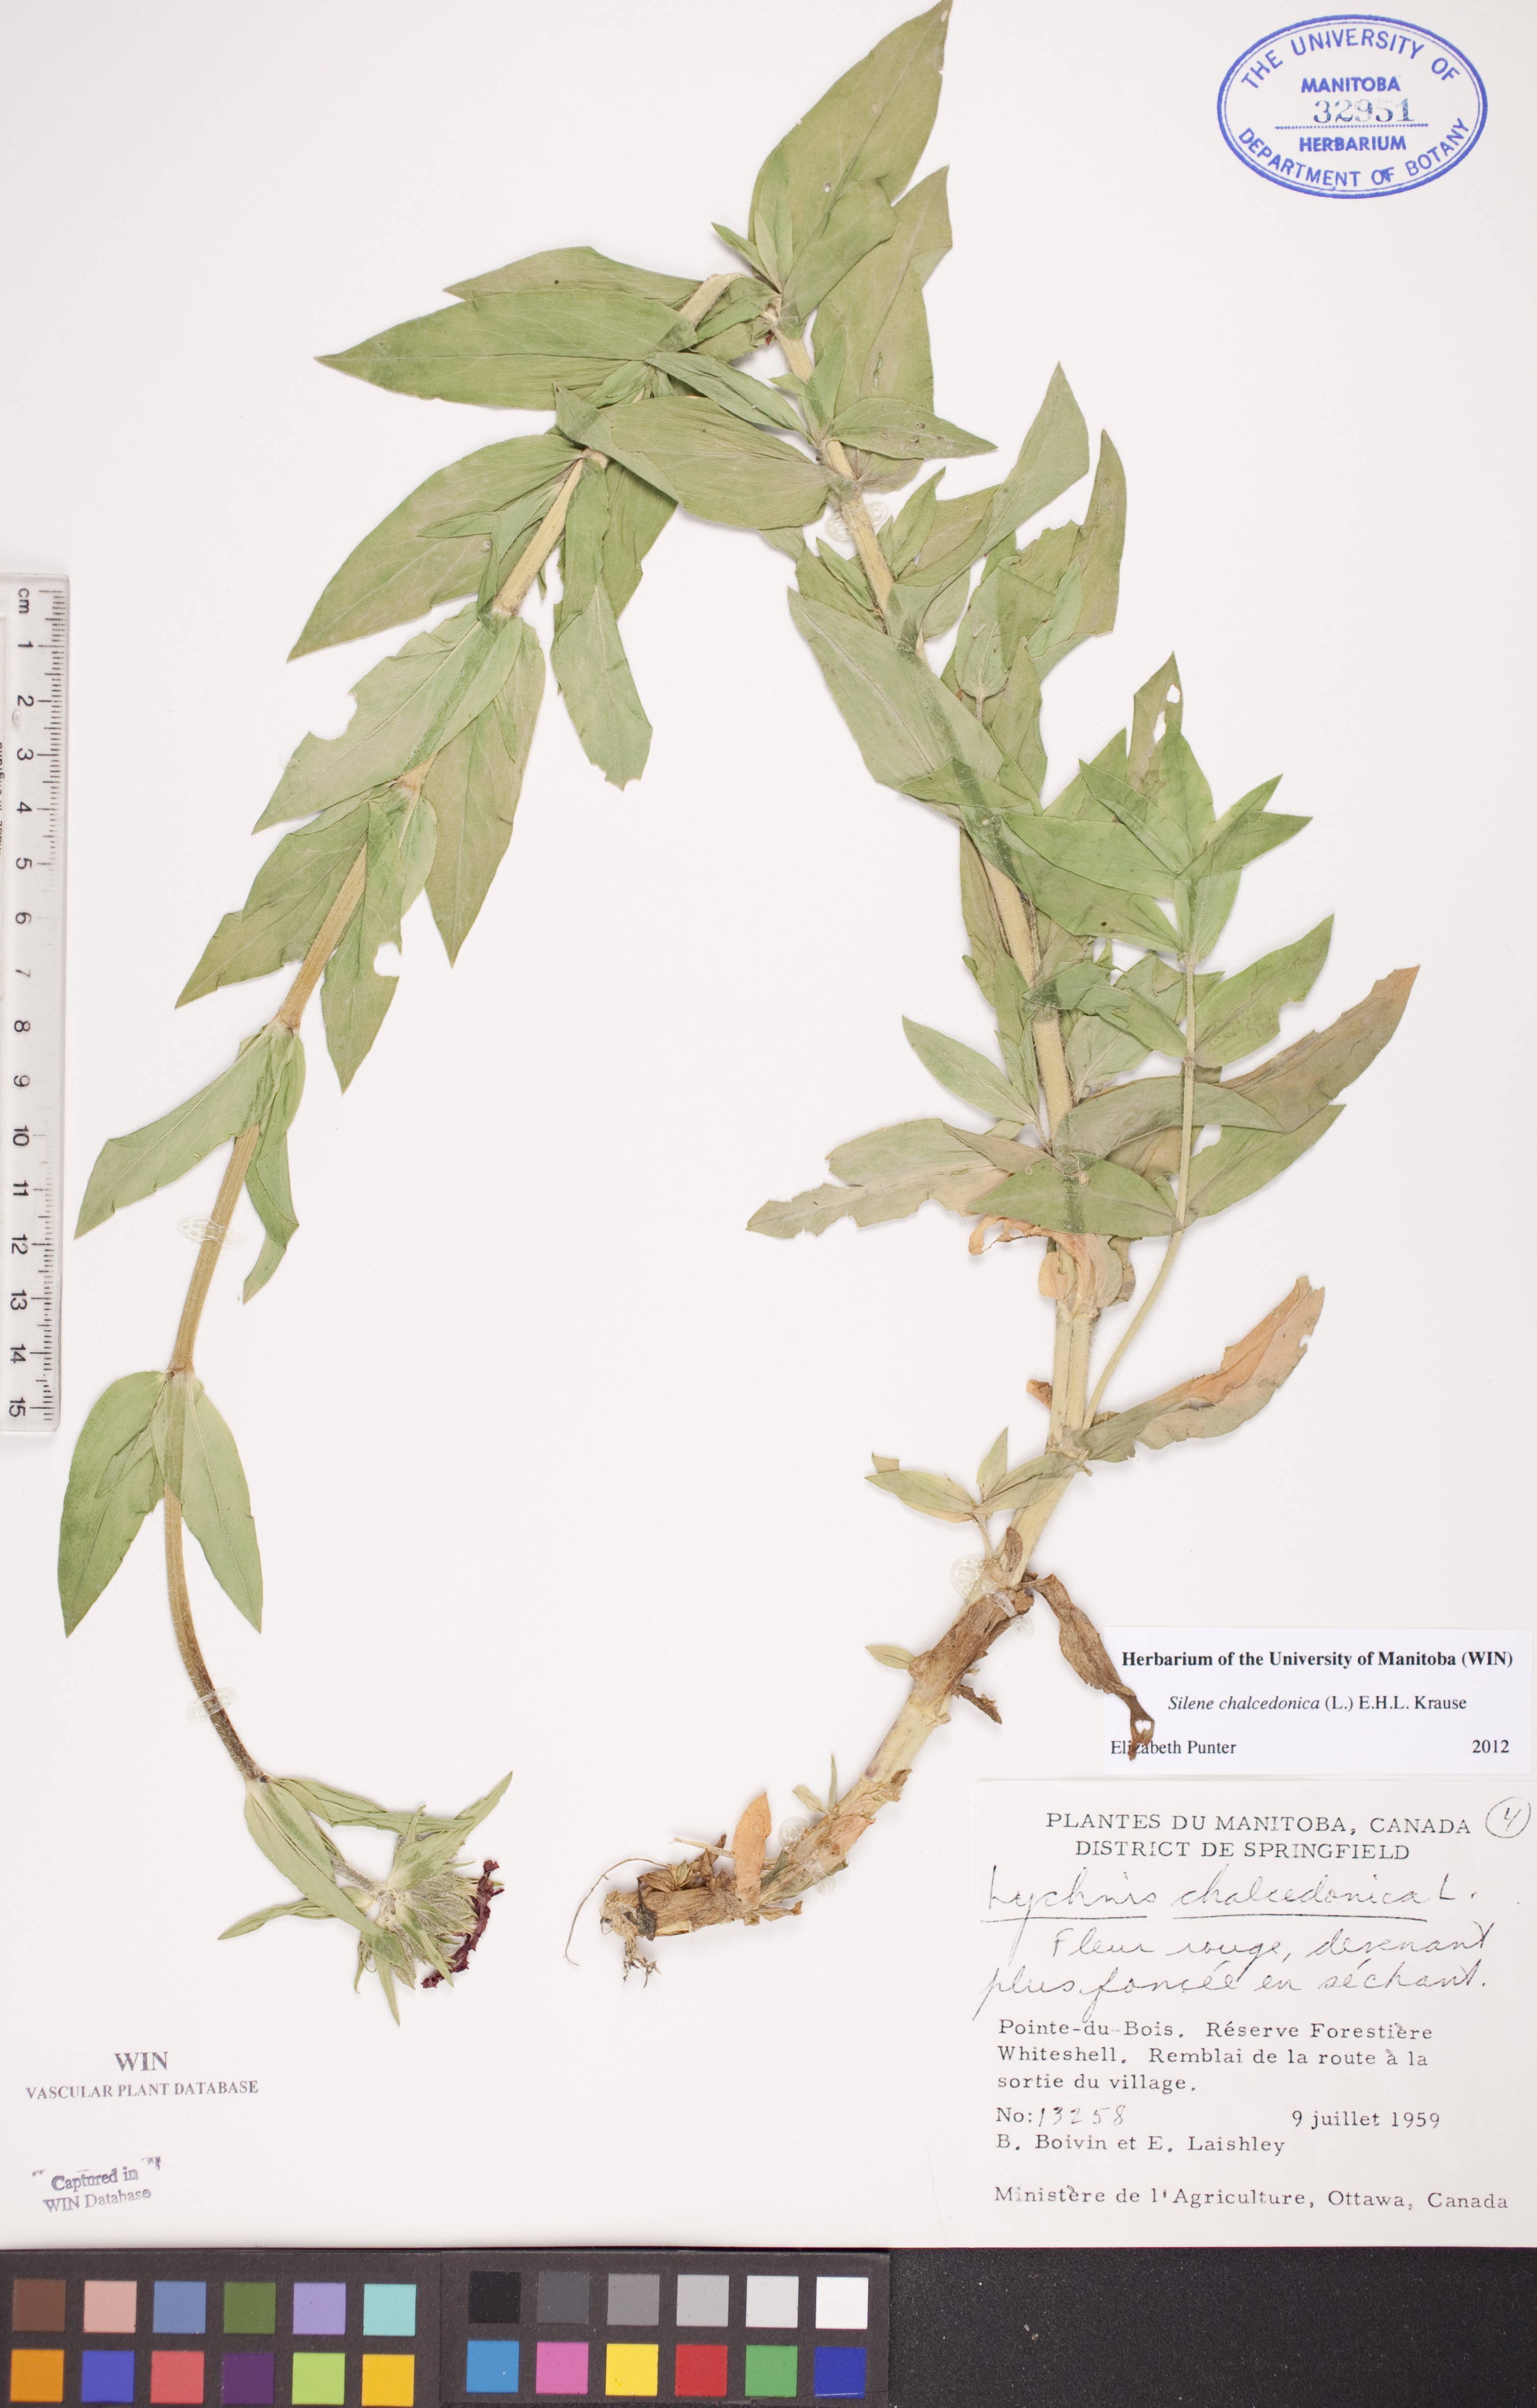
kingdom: Plantae
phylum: Tracheophyta
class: Magnoliopsida
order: Caryophyllales
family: Caryophyllaceae
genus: Silene
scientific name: Silene chalcedonica
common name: Maltese-cross
